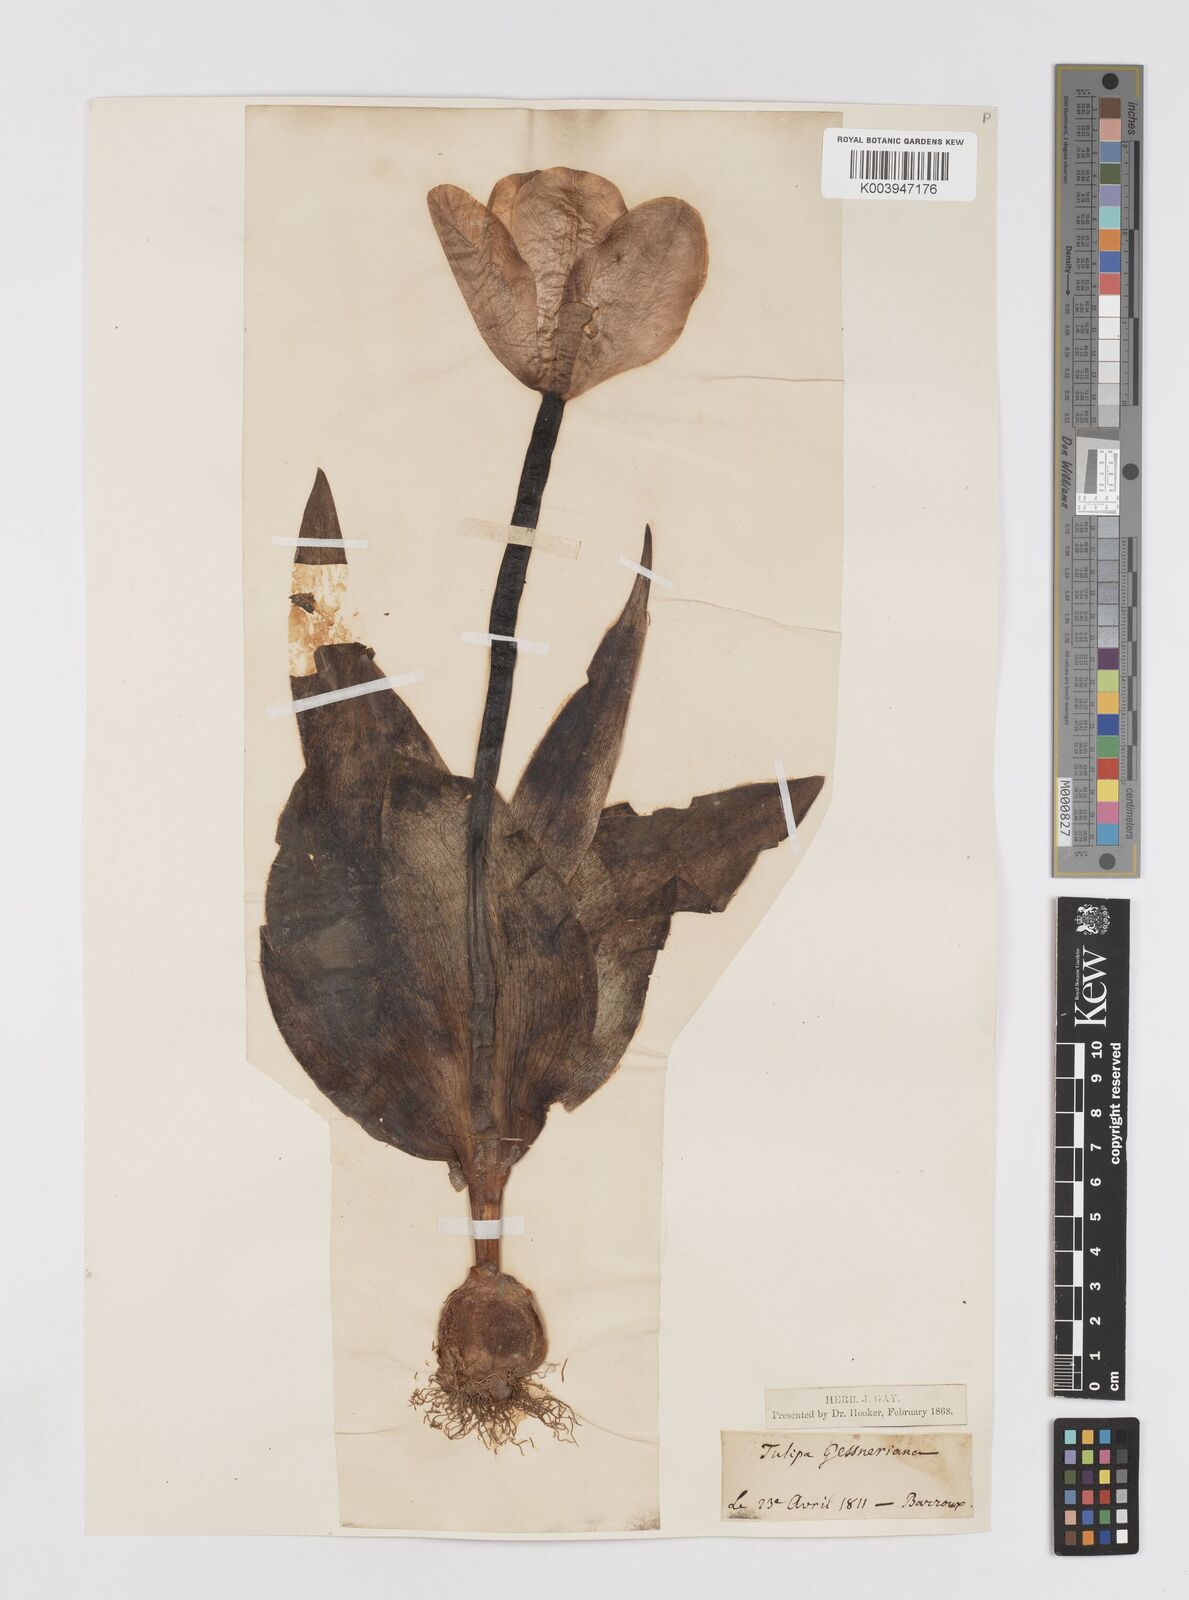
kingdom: Plantae
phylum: Tracheophyta
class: Liliopsida
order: Liliales
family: Liliaceae
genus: Tulipa
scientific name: Tulipa gesneriana
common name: Garden tulip
